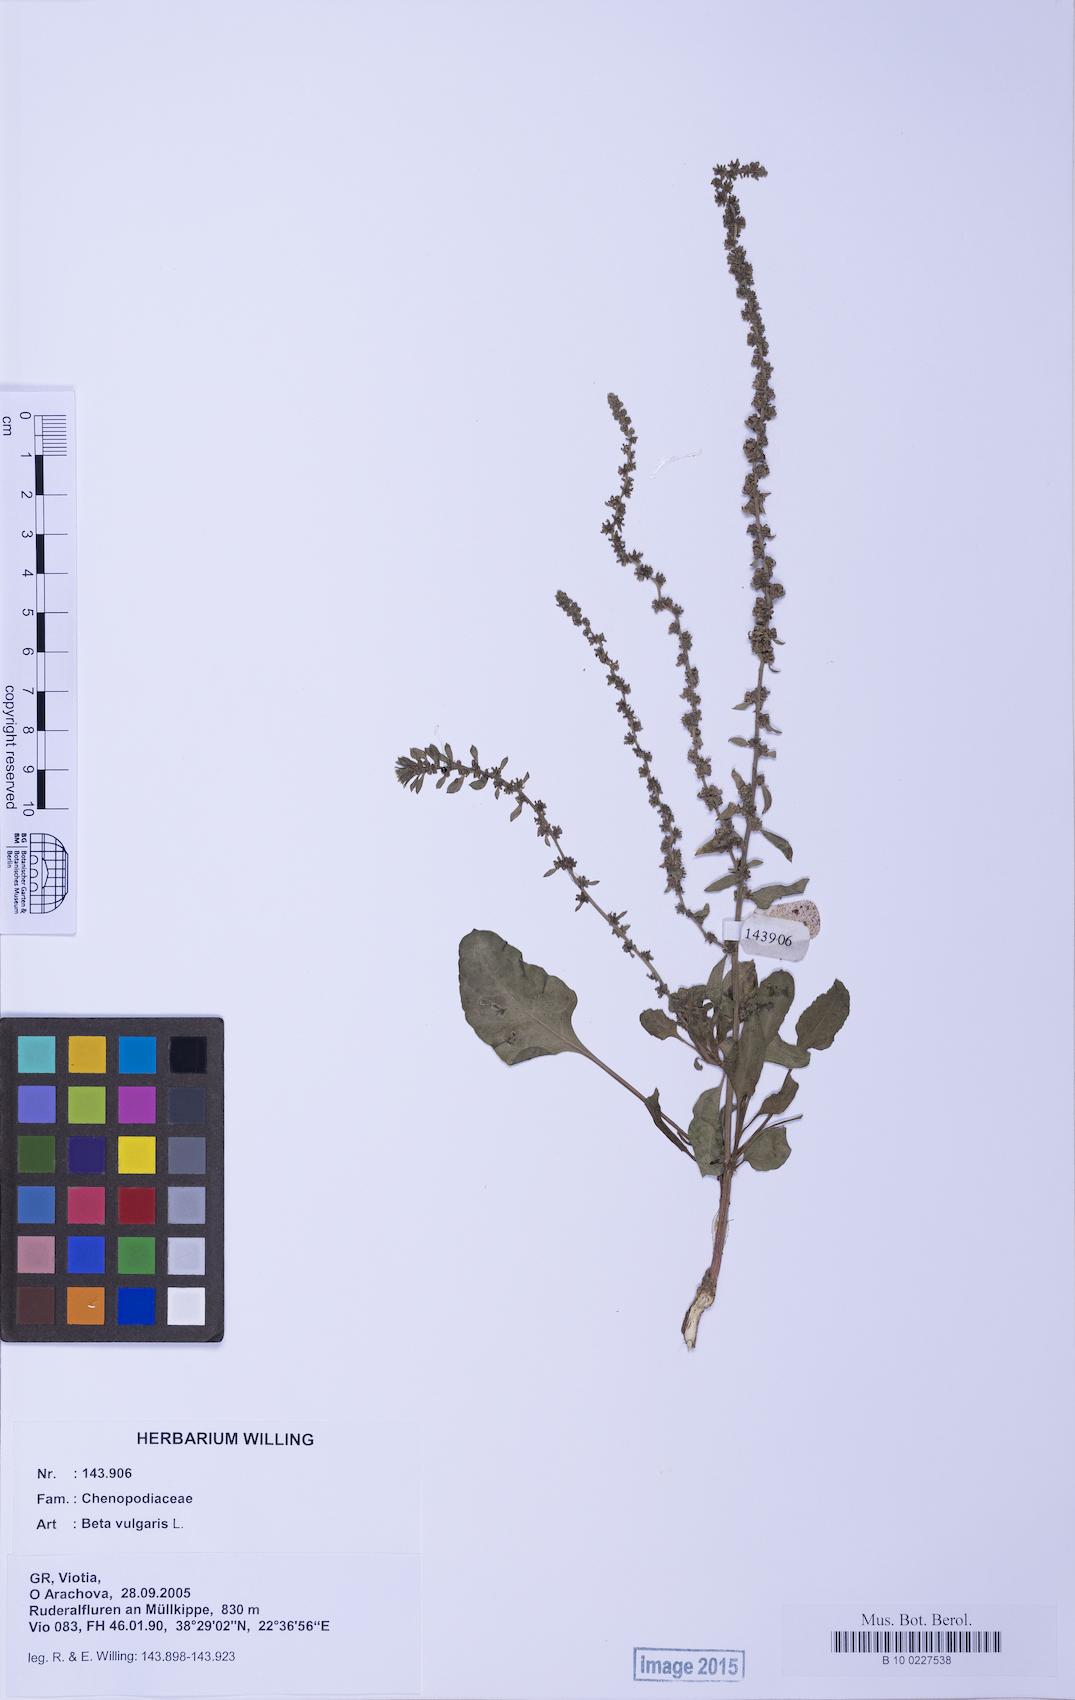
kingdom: Plantae
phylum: Tracheophyta
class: Magnoliopsida
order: Caryophyllales
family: Amaranthaceae
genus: Beta
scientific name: Beta macrocarpa
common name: Beet
